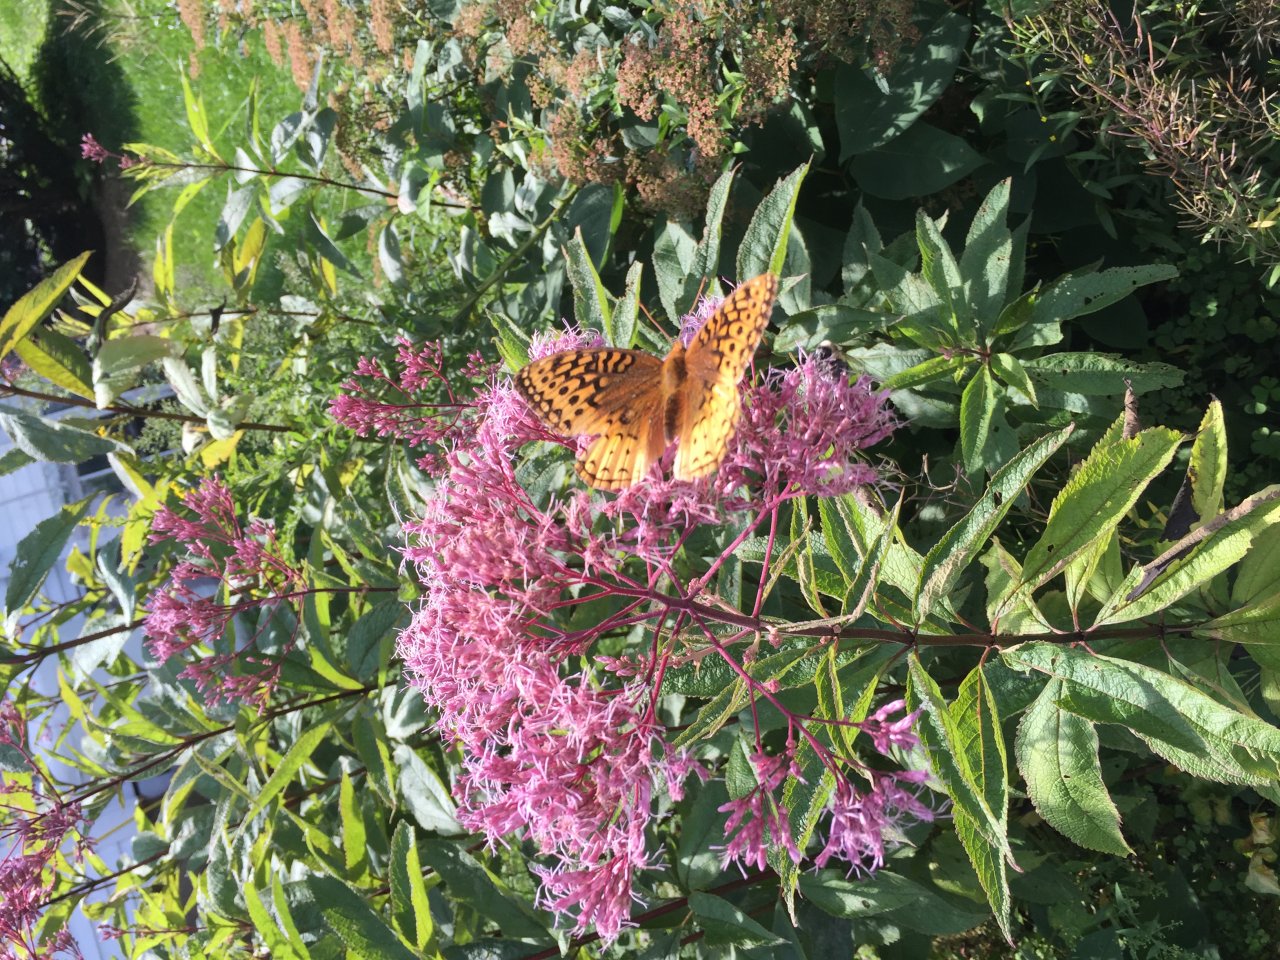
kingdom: Animalia
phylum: Arthropoda
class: Insecta
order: Lepidoptera
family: Nymphalidae
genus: Speyeria
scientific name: Speyeria cybele
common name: Great Spangled Fritillary
